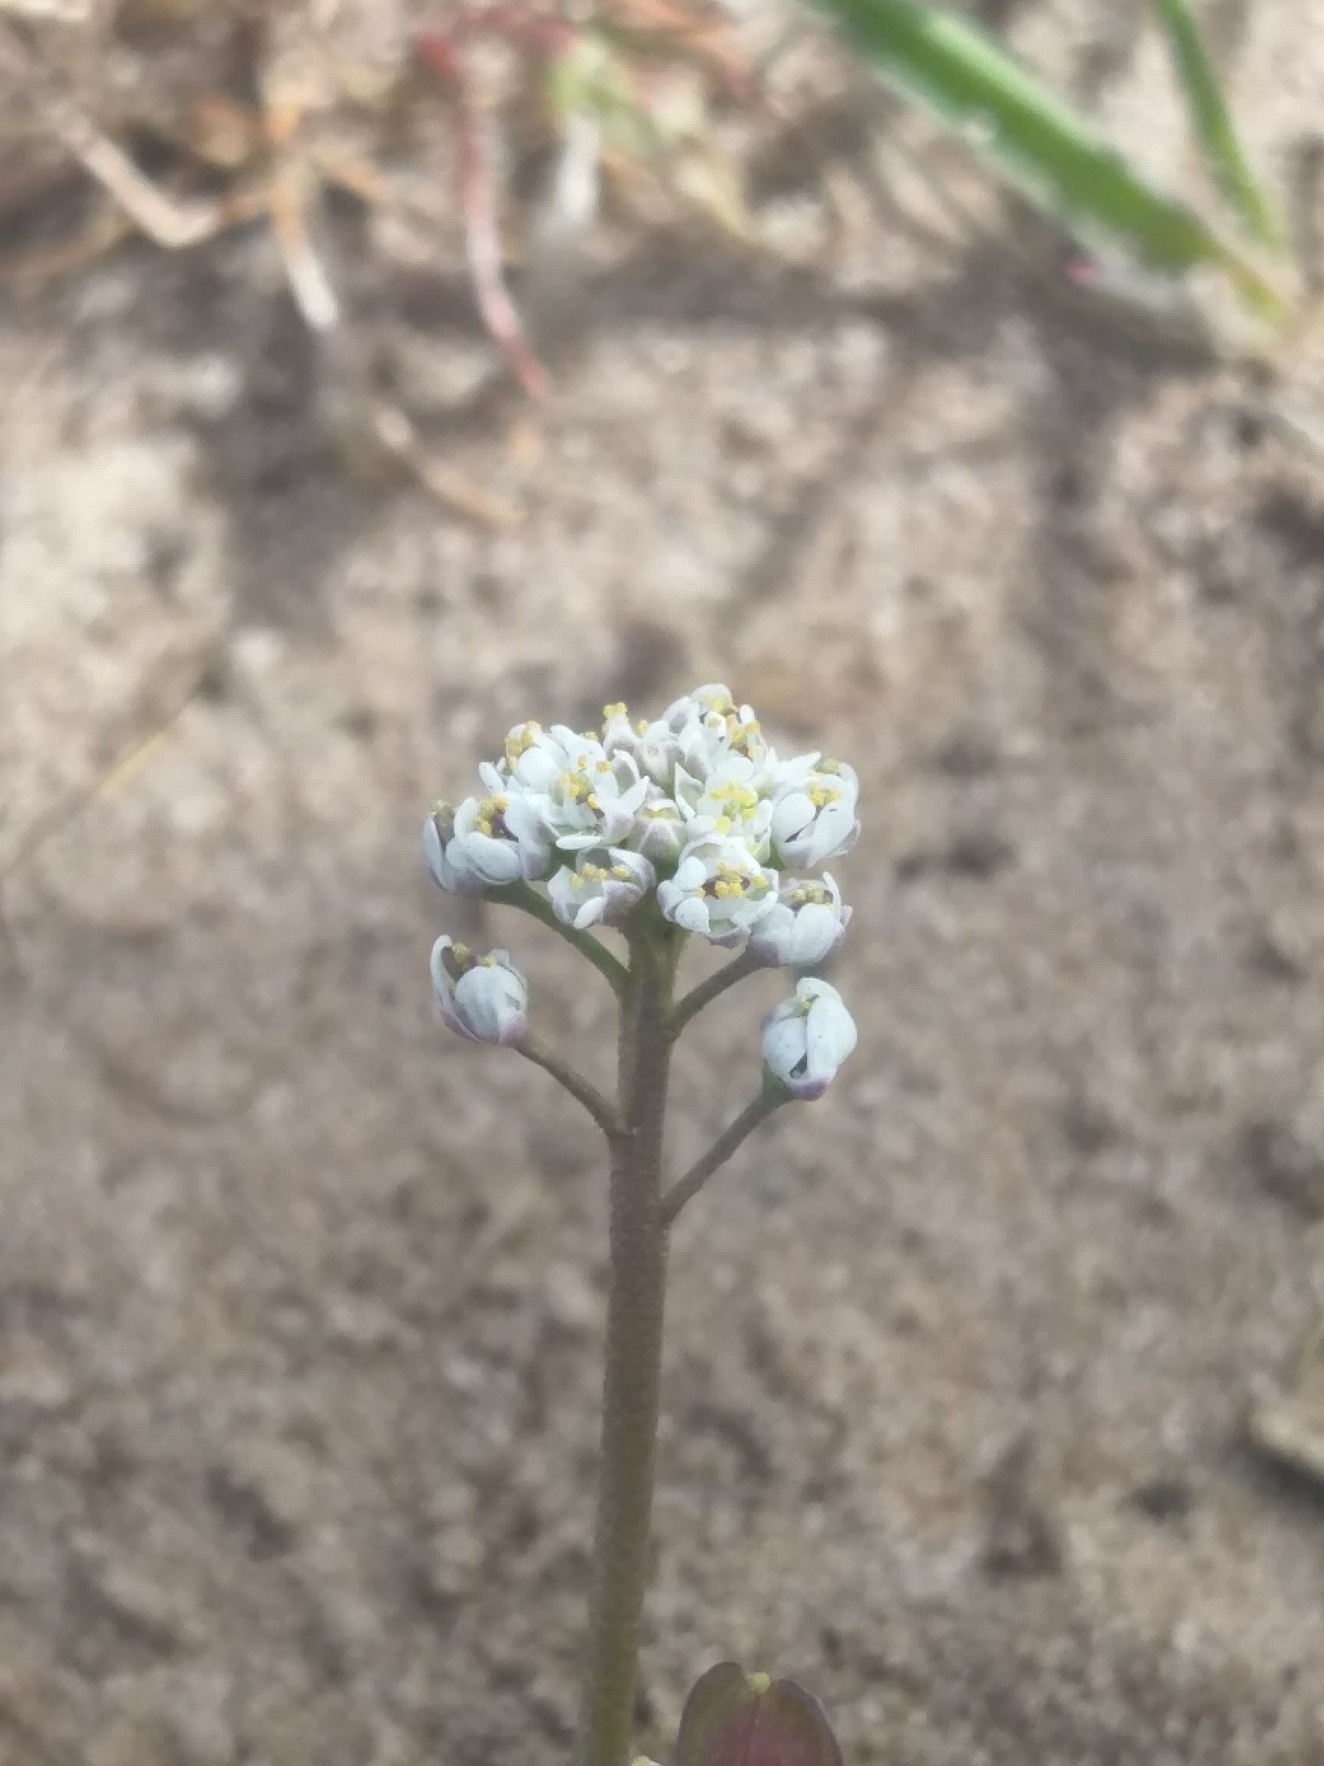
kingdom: Plantae
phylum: Tracheophyta
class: Magnoliopsida
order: Brassicales
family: Brassicaceae
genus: Teesdalia
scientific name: Teesdalia nudicaulis
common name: Flipkrave
